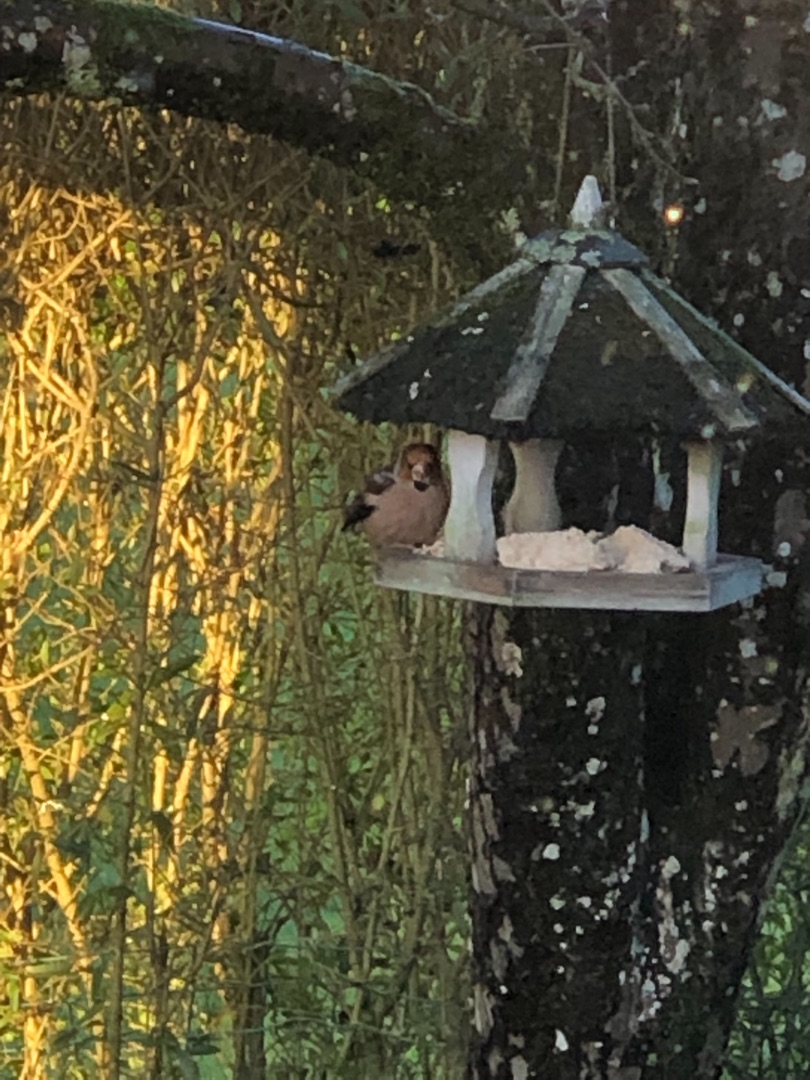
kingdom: Animalia
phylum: Chordata
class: Aves
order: Passeriformes
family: Fringillidae
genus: Coccothraustes
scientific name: Coccothraustes coccothraustes
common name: Kernebider
